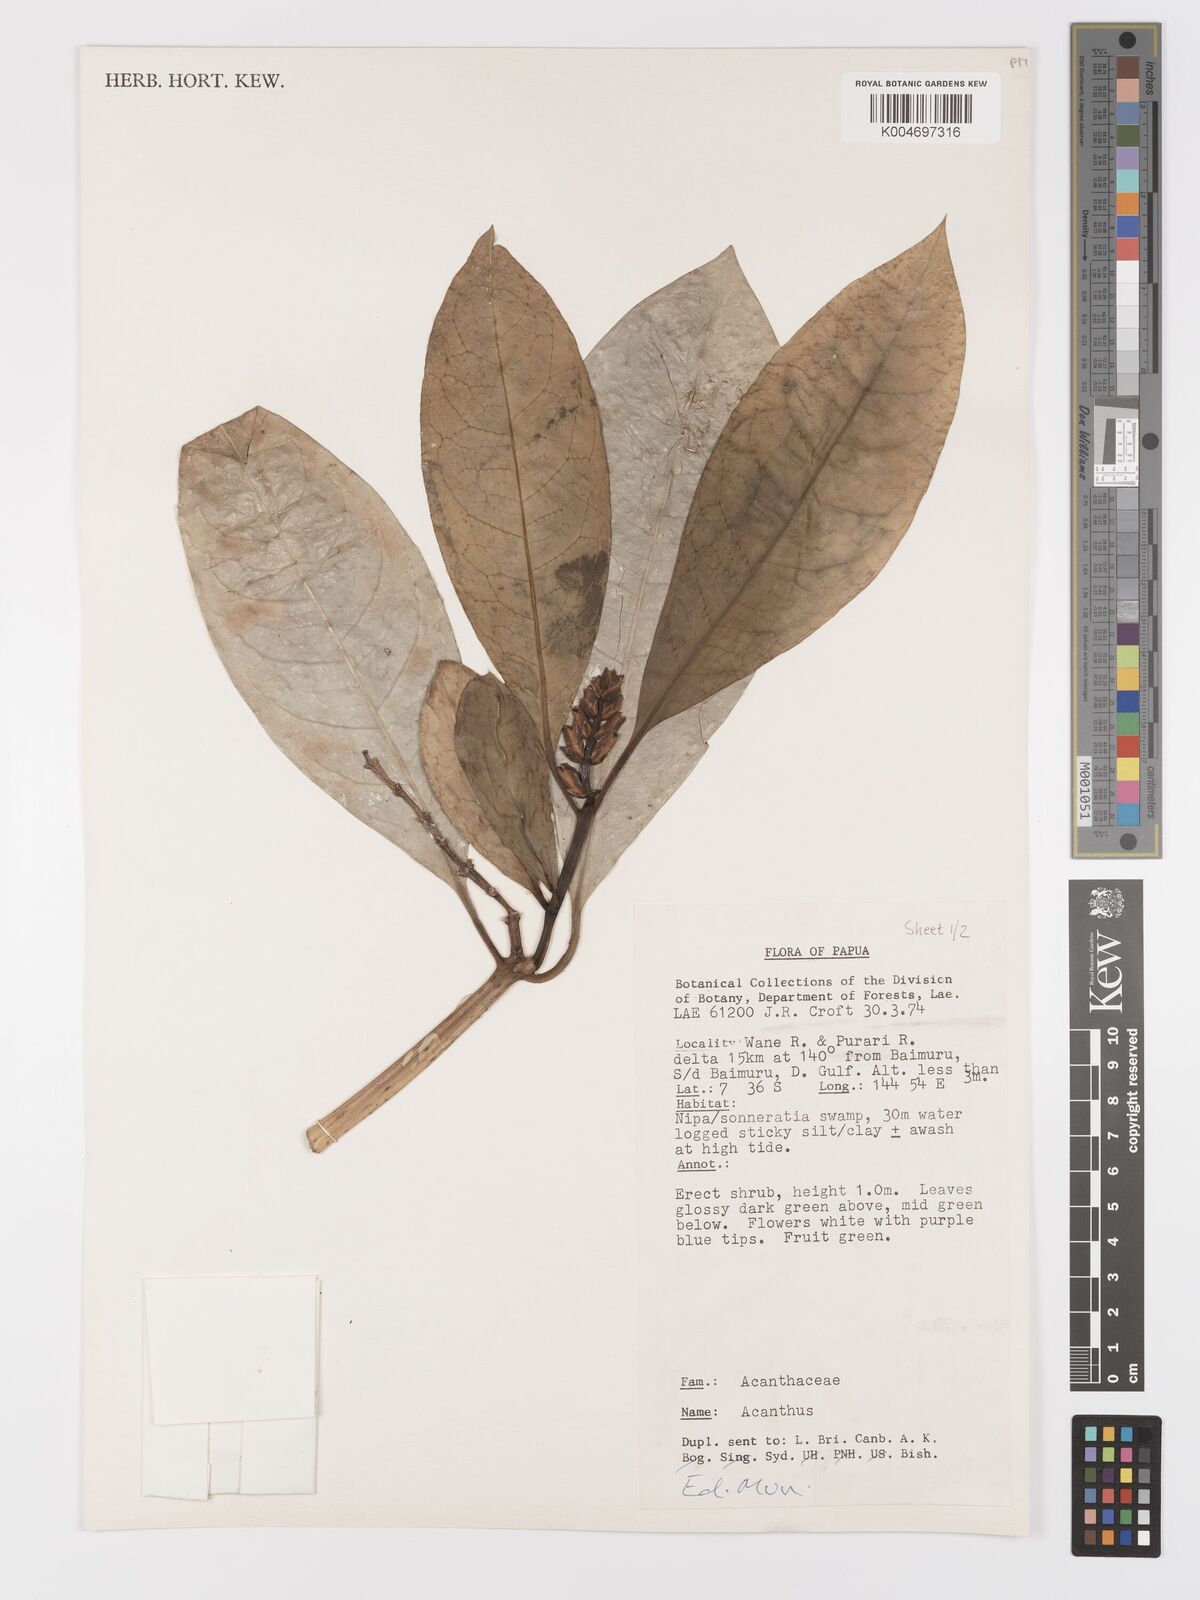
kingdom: Plantae
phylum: Tracheophyta
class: Magnoliopsida
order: Lamiales
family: Acanthaceae
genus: Acanthus
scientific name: Acanthus
